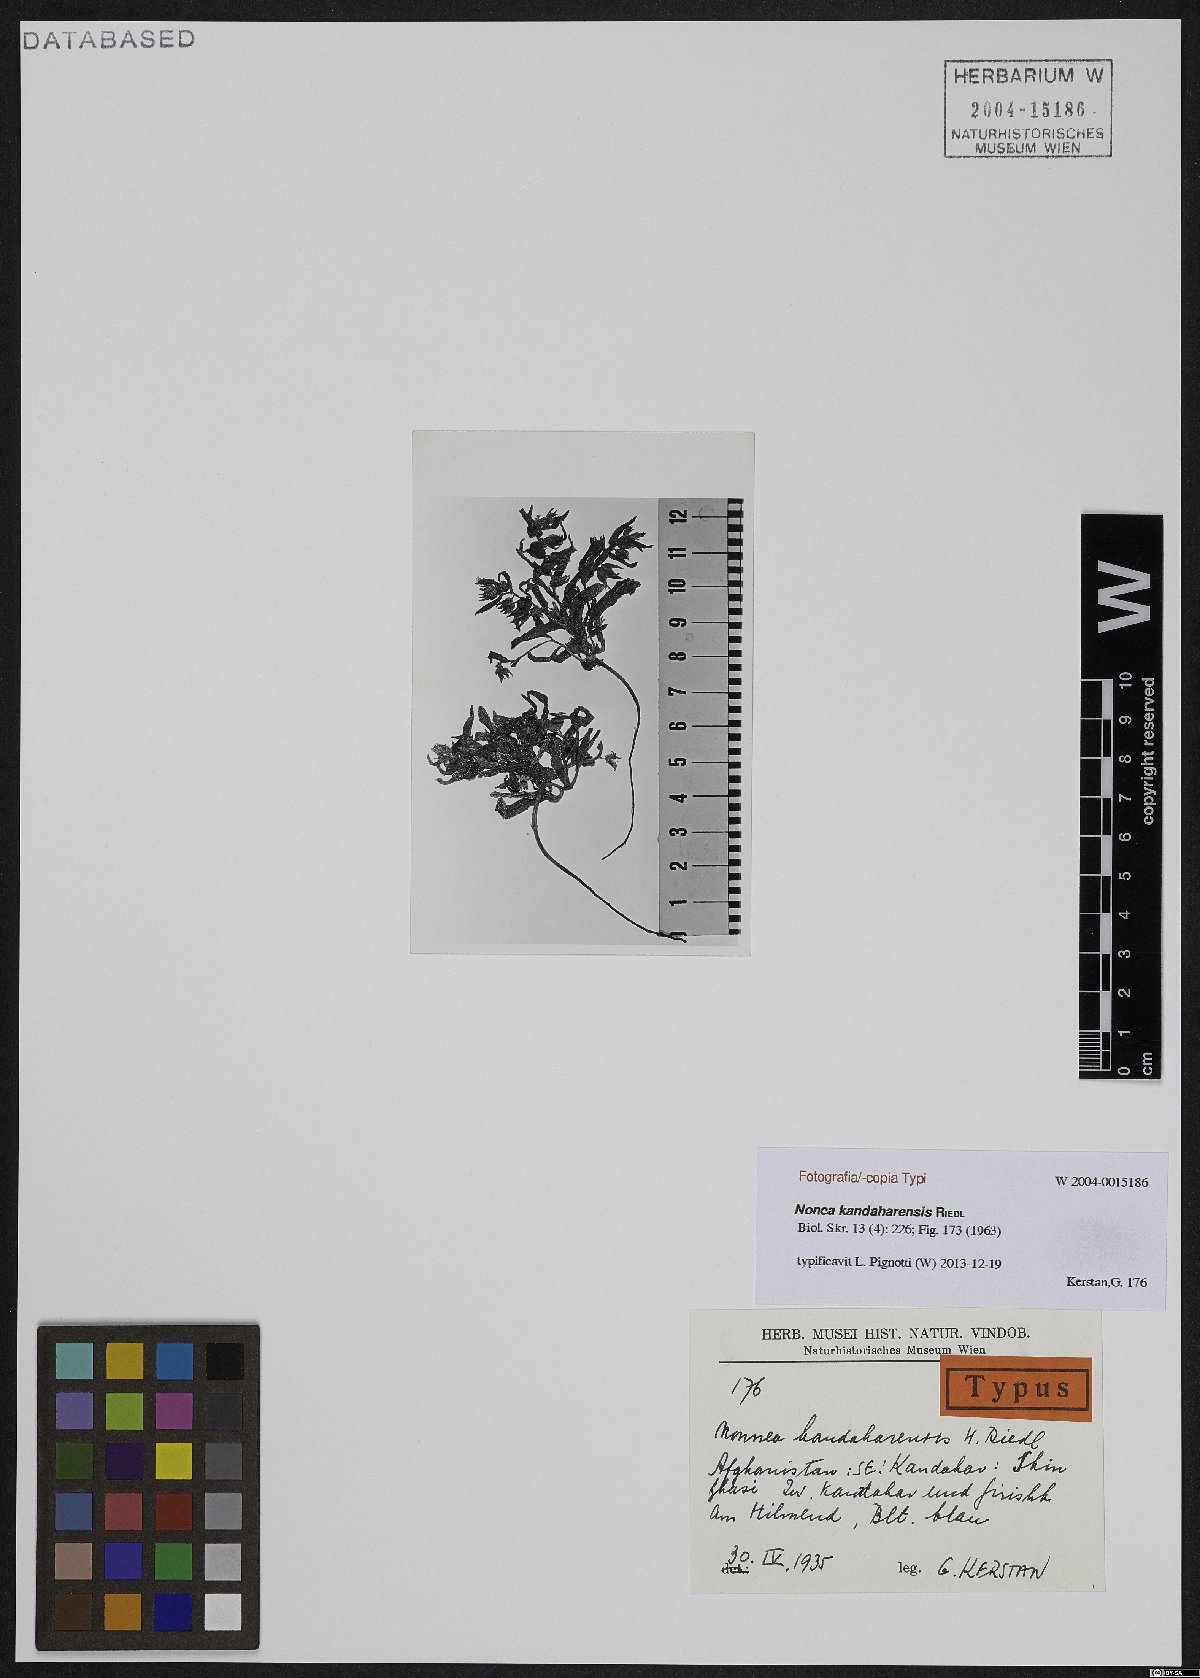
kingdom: Plantae
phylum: Tracheophyta
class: Magnoliopsida
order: Boraginales
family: Boraginaceae
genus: Nonea
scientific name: Nonea kandaharensis
